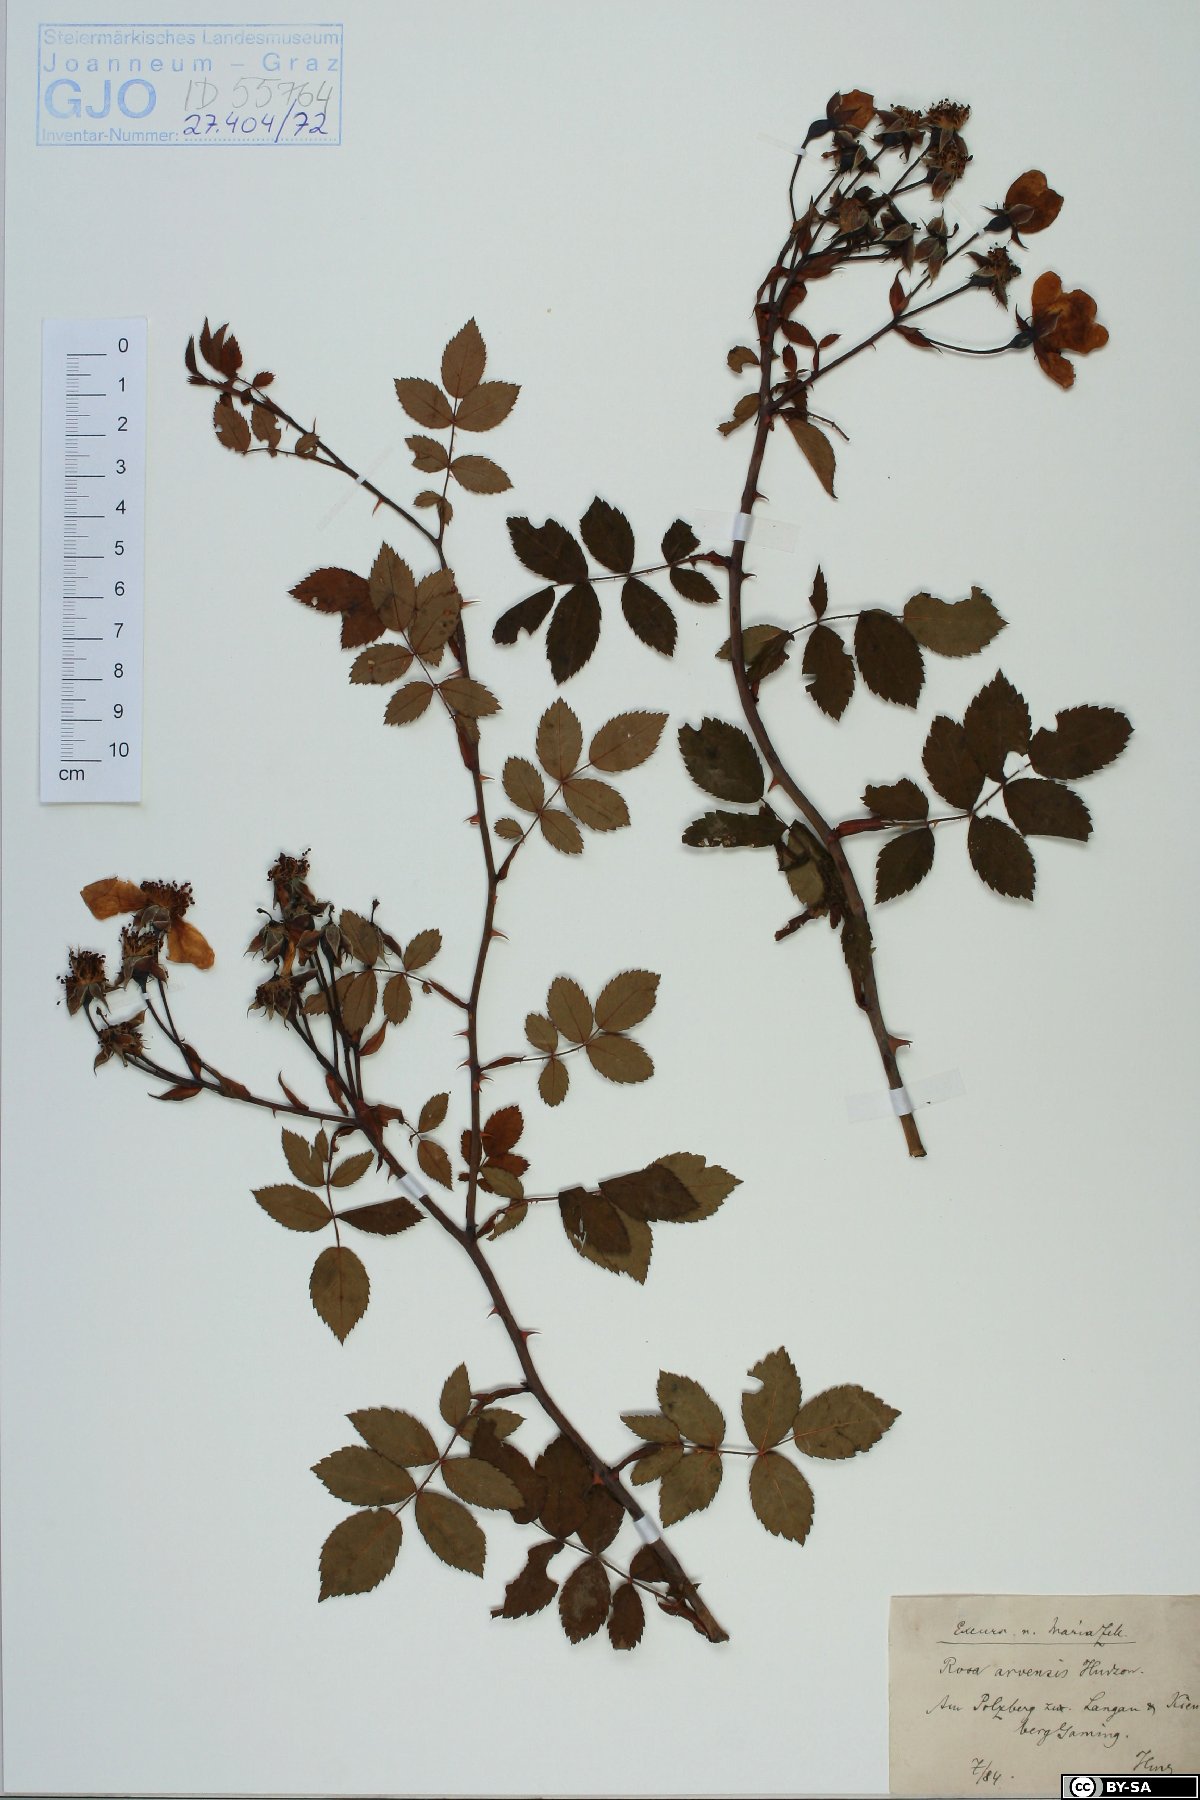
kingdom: Plantae
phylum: Tracheophyta
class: Magnoliopsida
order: Rosales
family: Rosaceae
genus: Rosa
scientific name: Rosa arvensis
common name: Field rose
